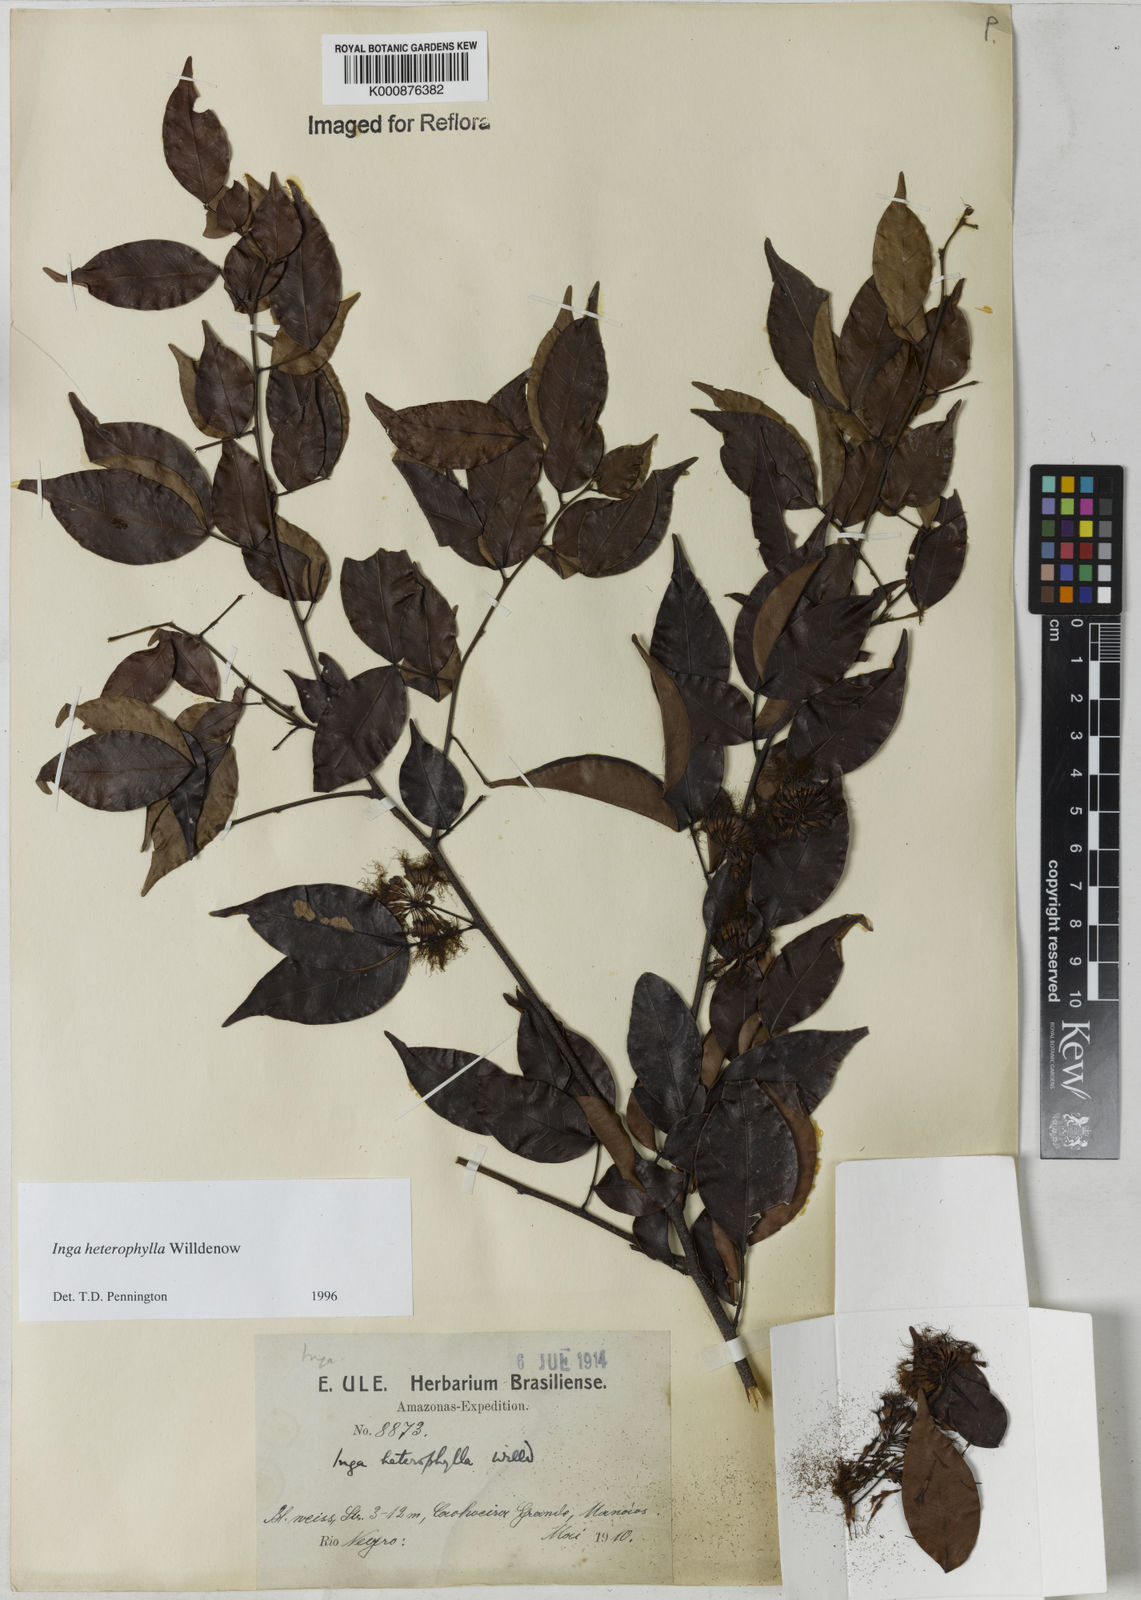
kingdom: Plantae
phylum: Tracheophyta
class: Magnoliopsida
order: Fabales
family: Fabaceae
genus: Inga
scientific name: Inga heterophylla
